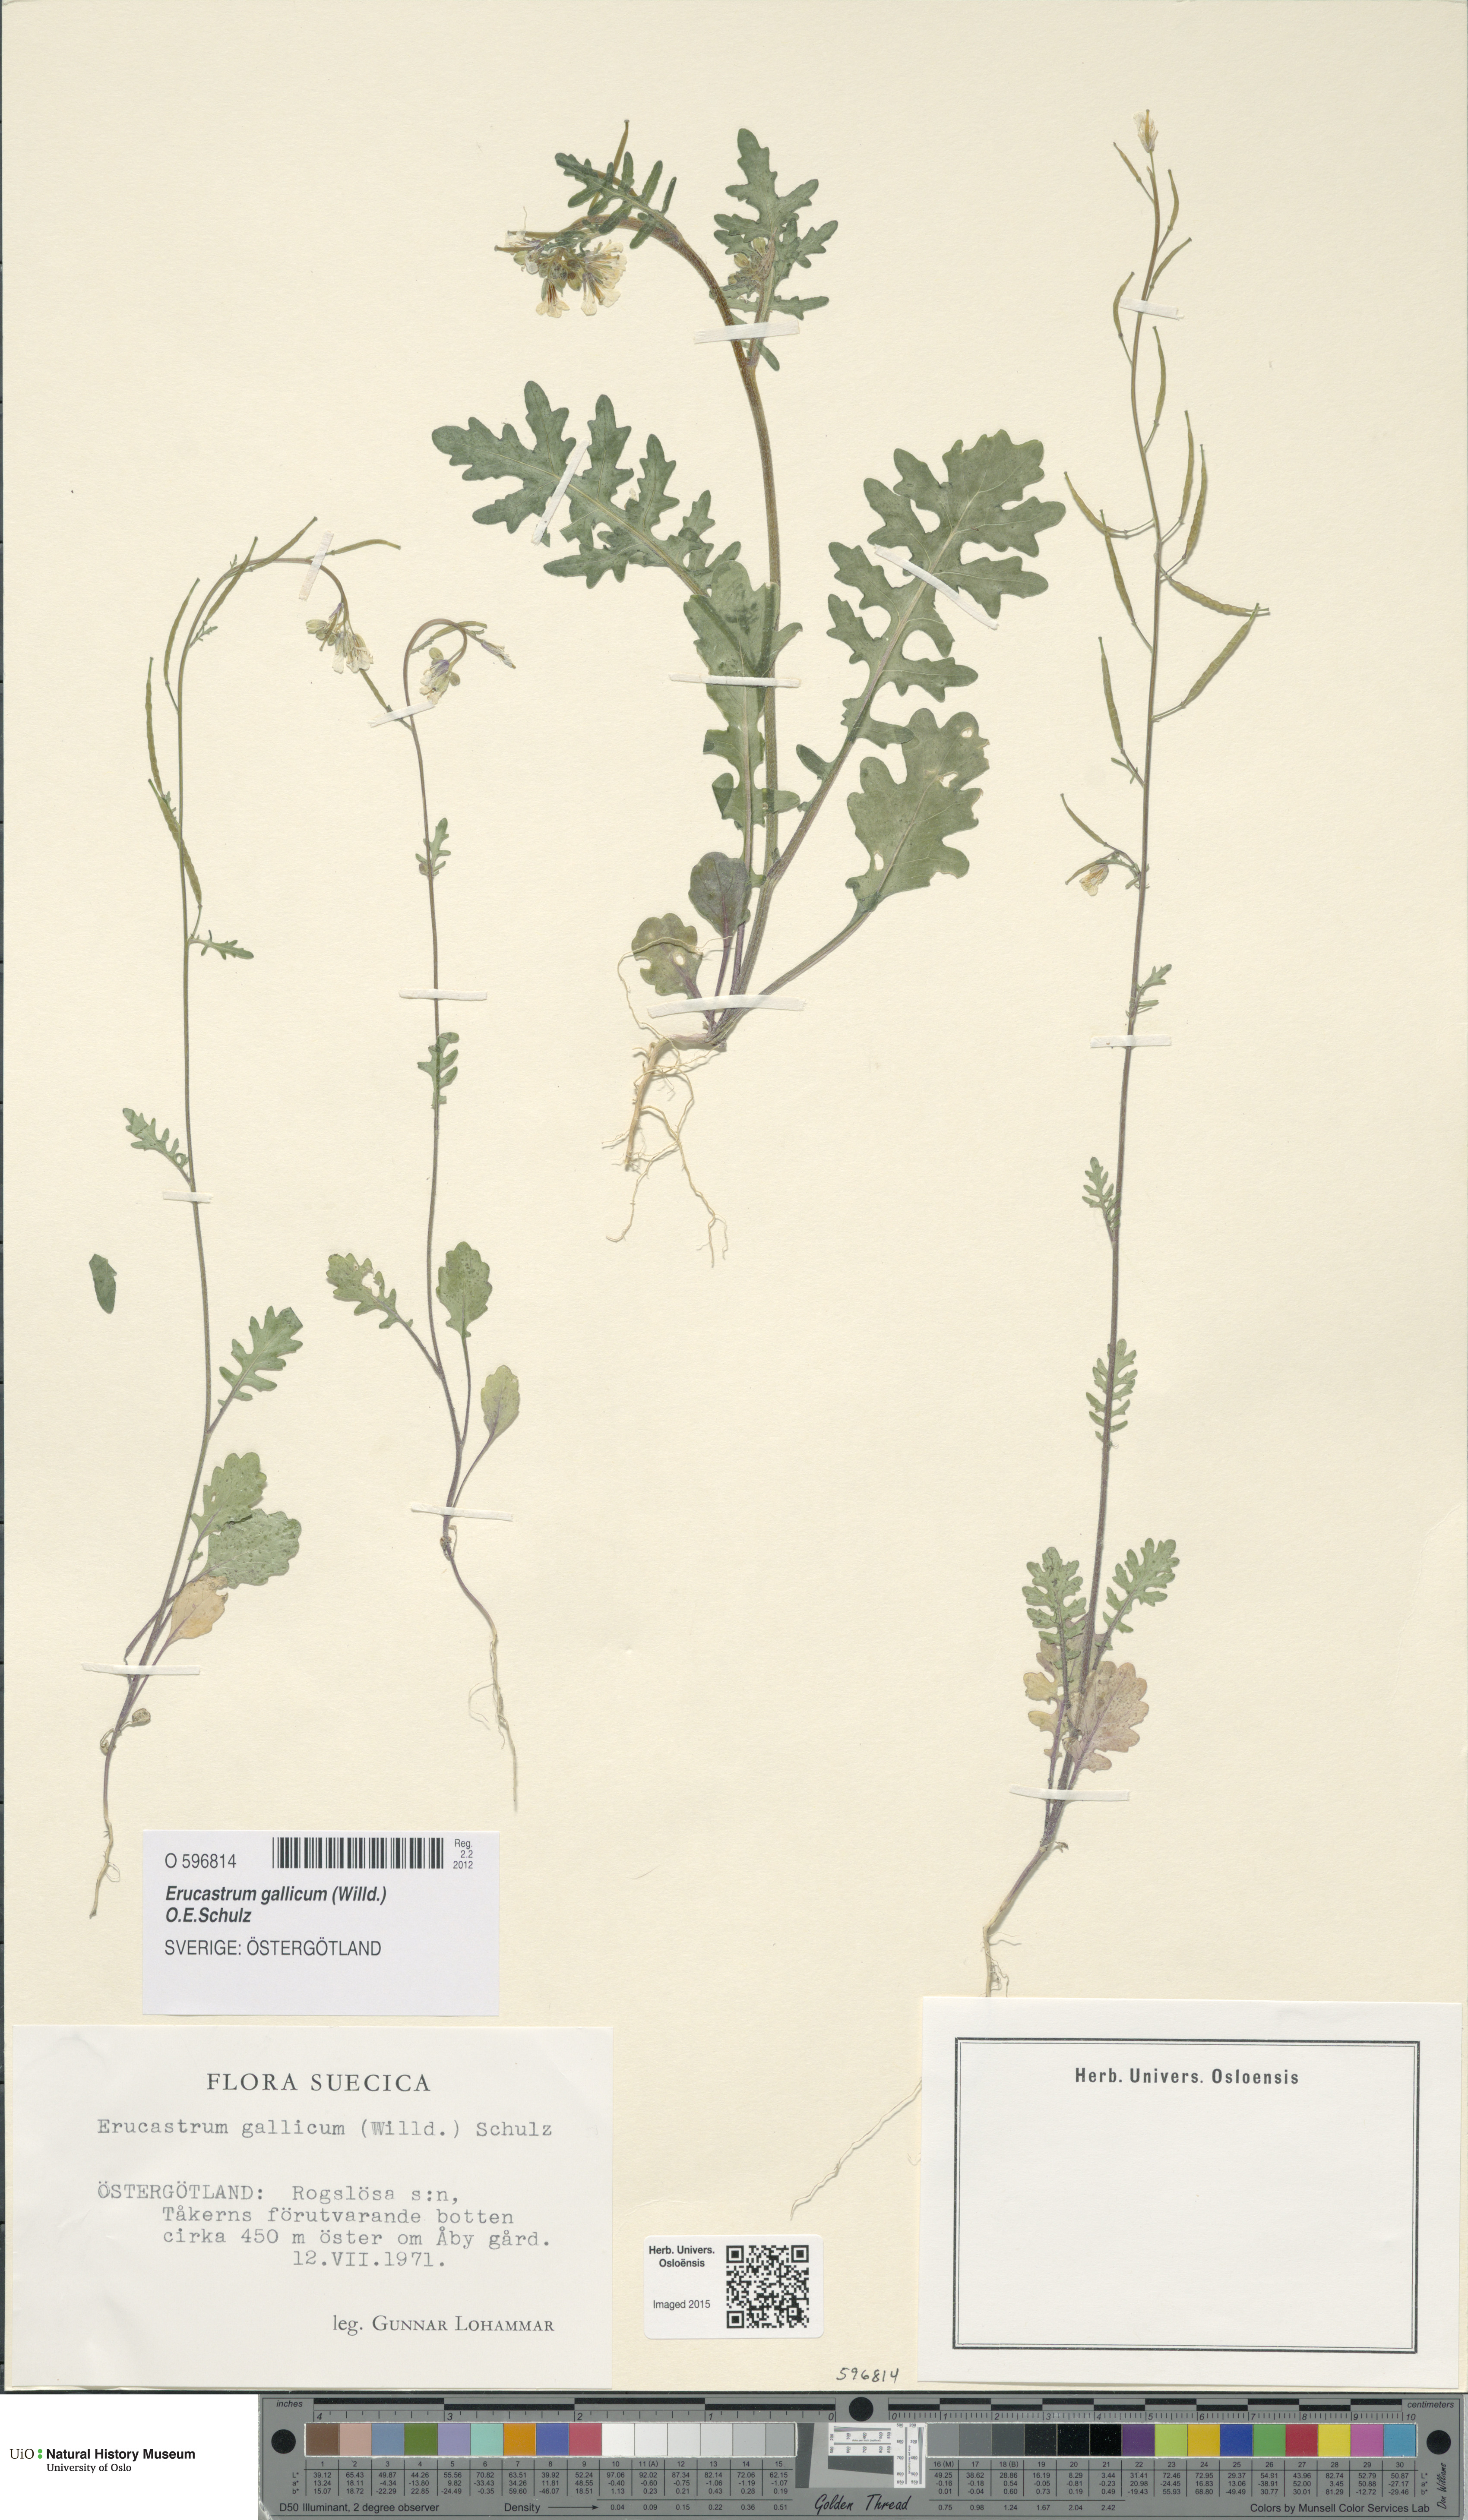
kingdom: Plantae
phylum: Tracheophyta
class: Magnoliopsida
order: Brassicales
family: Brassicaceae
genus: Erucastrum
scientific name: Erucastrum gallicum
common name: Hairy rocket
